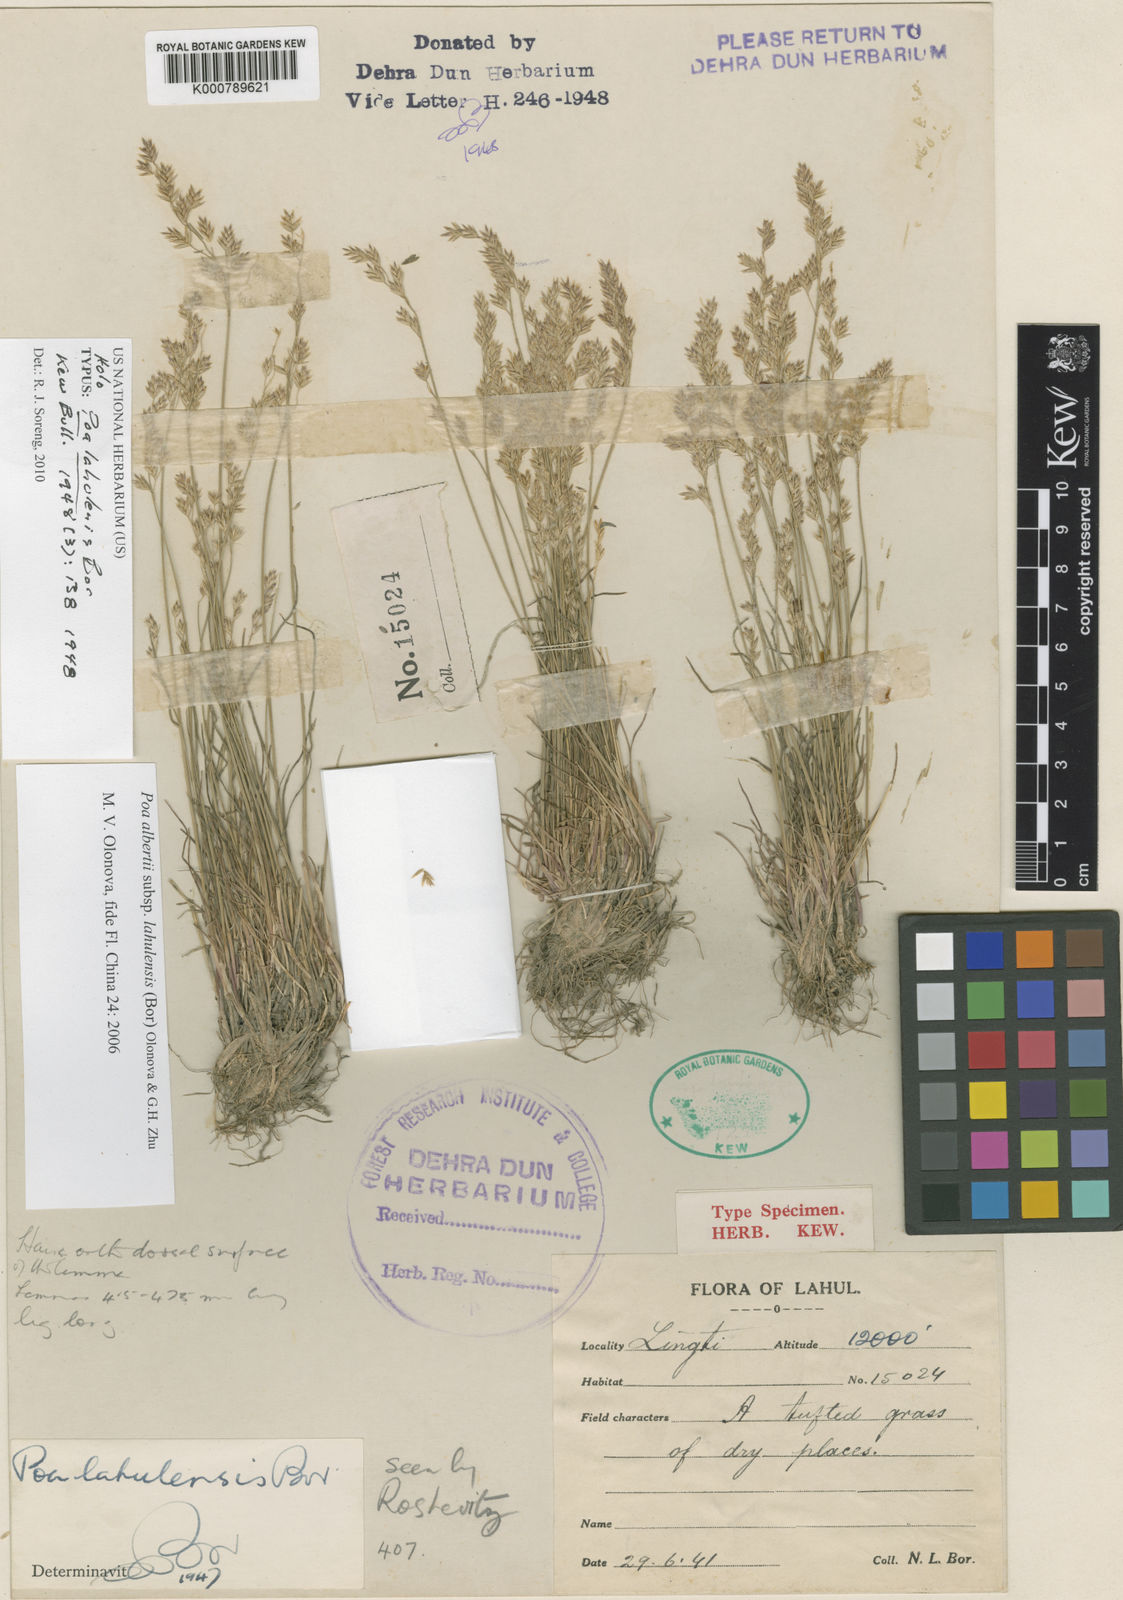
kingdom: Plantae
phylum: Tracheophyta
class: Liliopsida
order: Poales
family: Poaceae
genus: Poa
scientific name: Poa alberti
